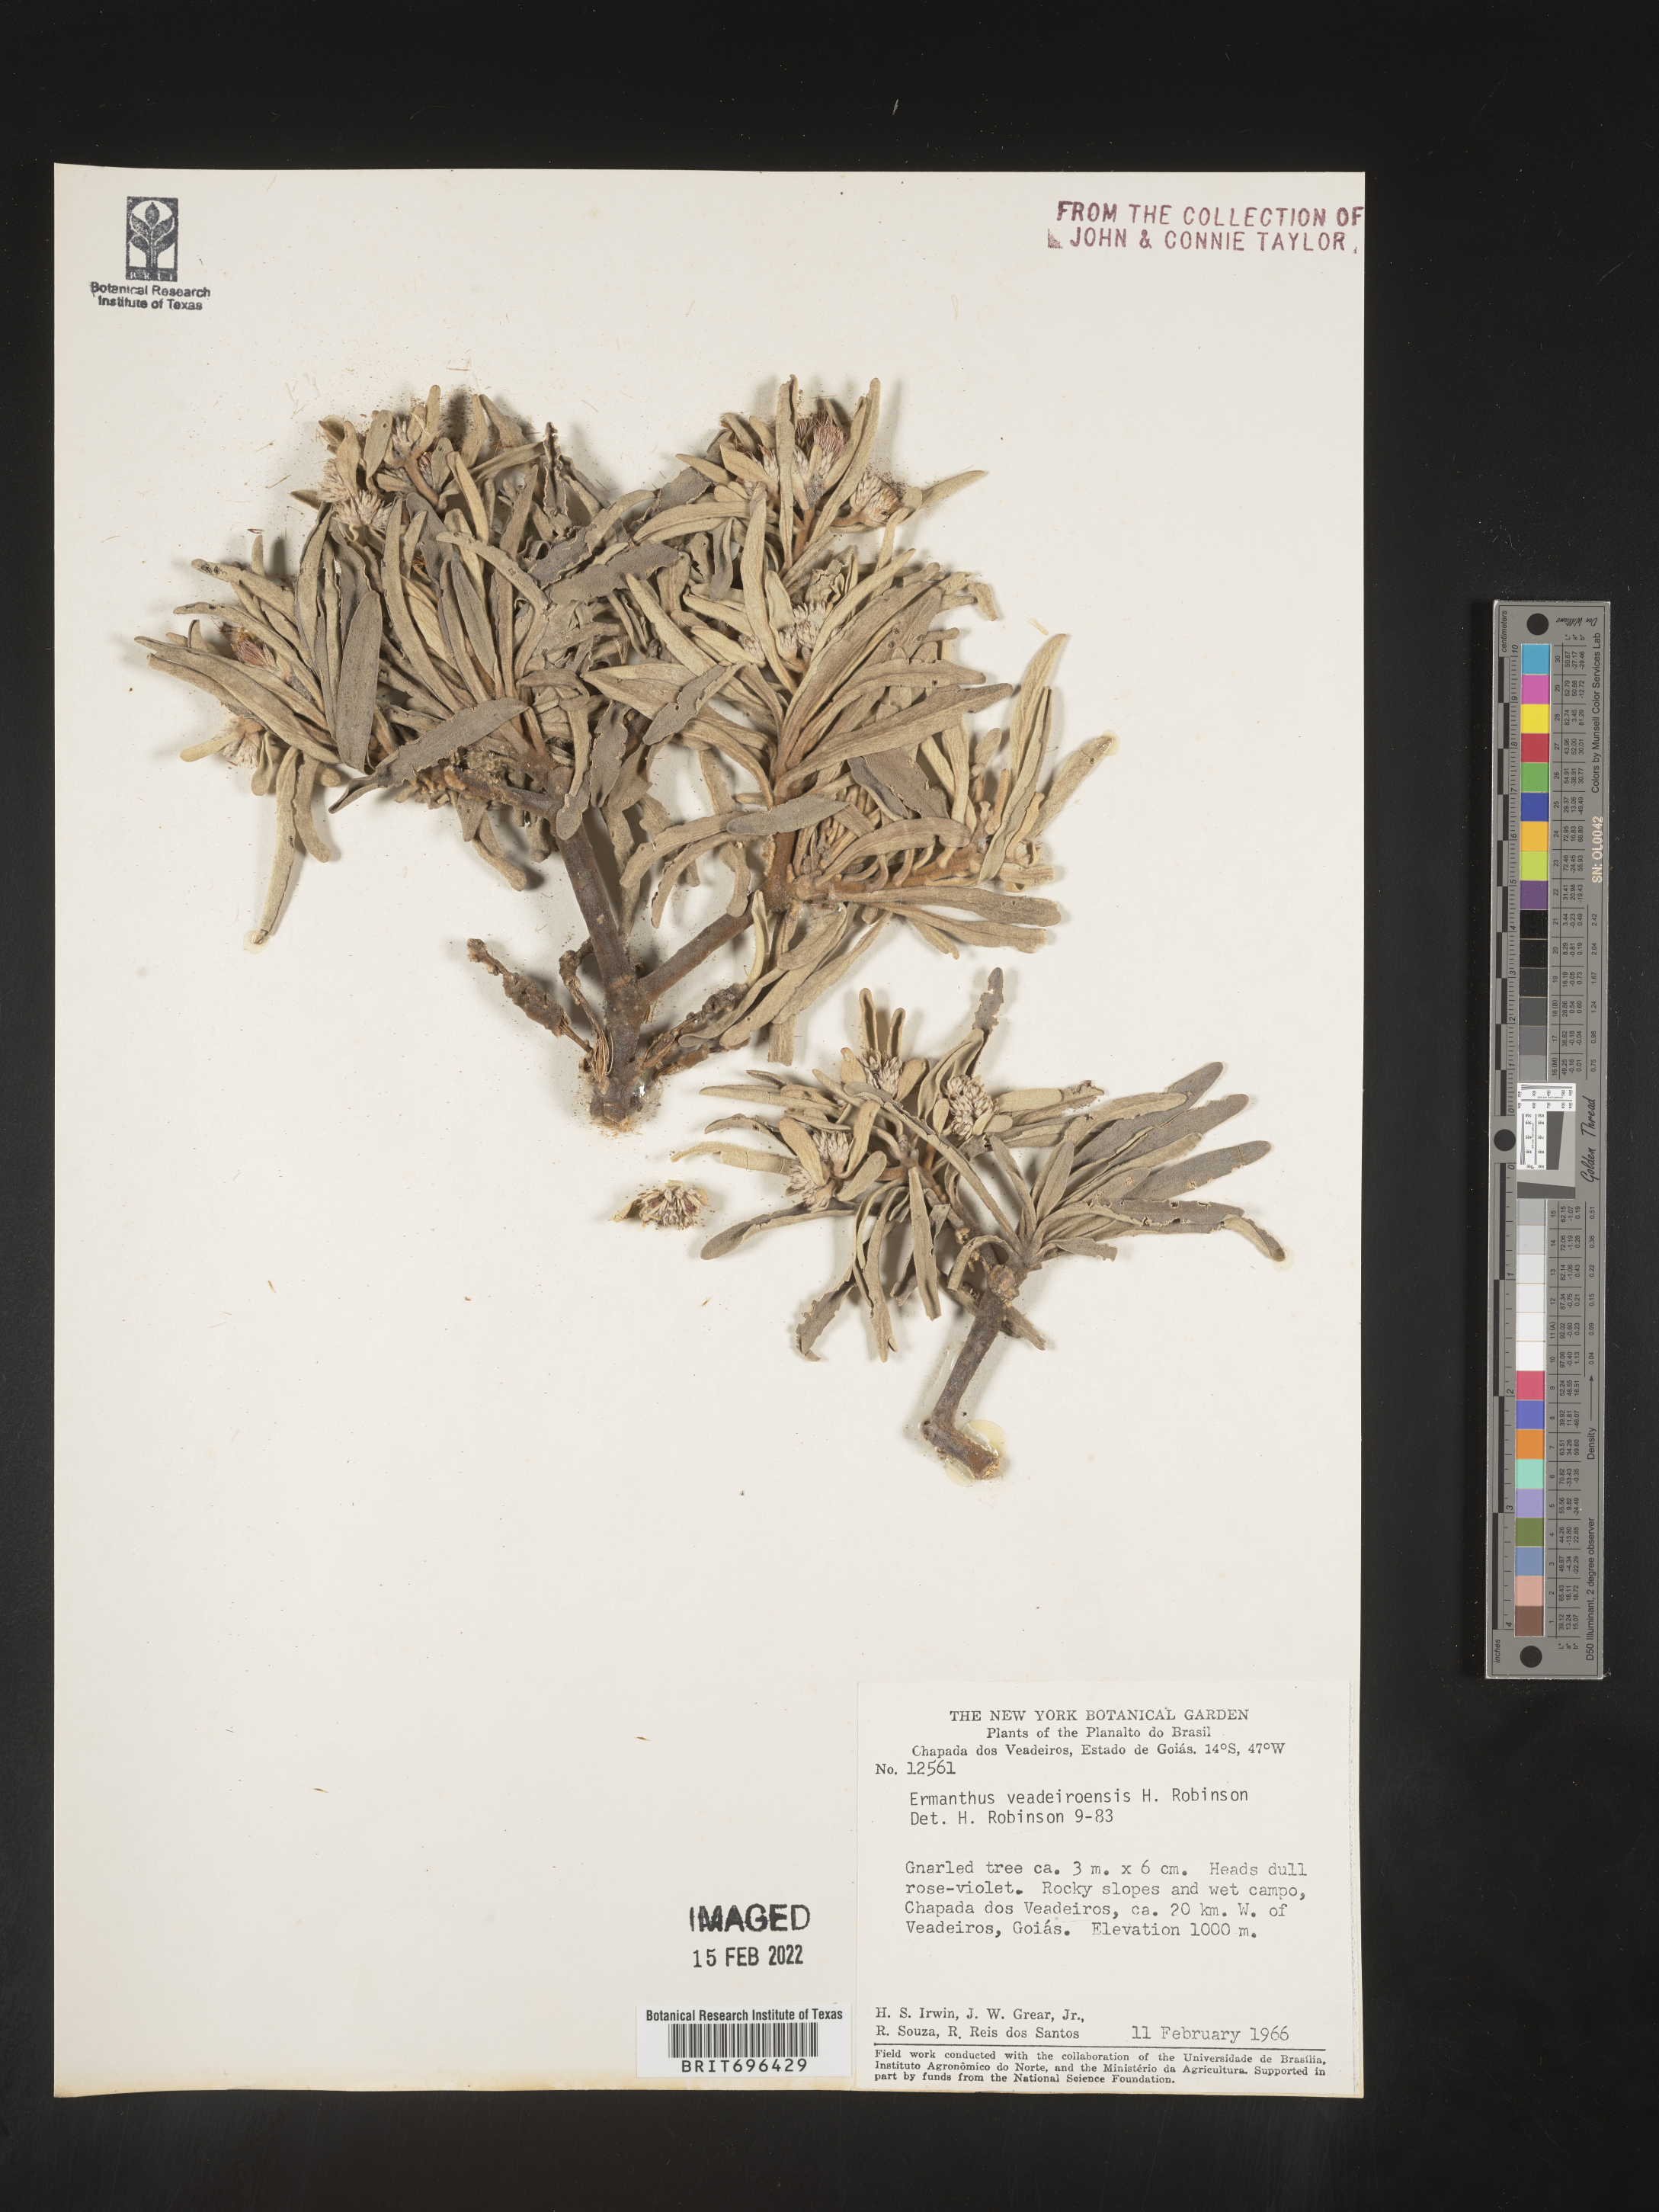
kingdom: Plantae
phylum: Tracheophyta
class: Magnoliopsida
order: Asterales
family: Asteraceae
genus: Eremanthus
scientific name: Eremanthus
